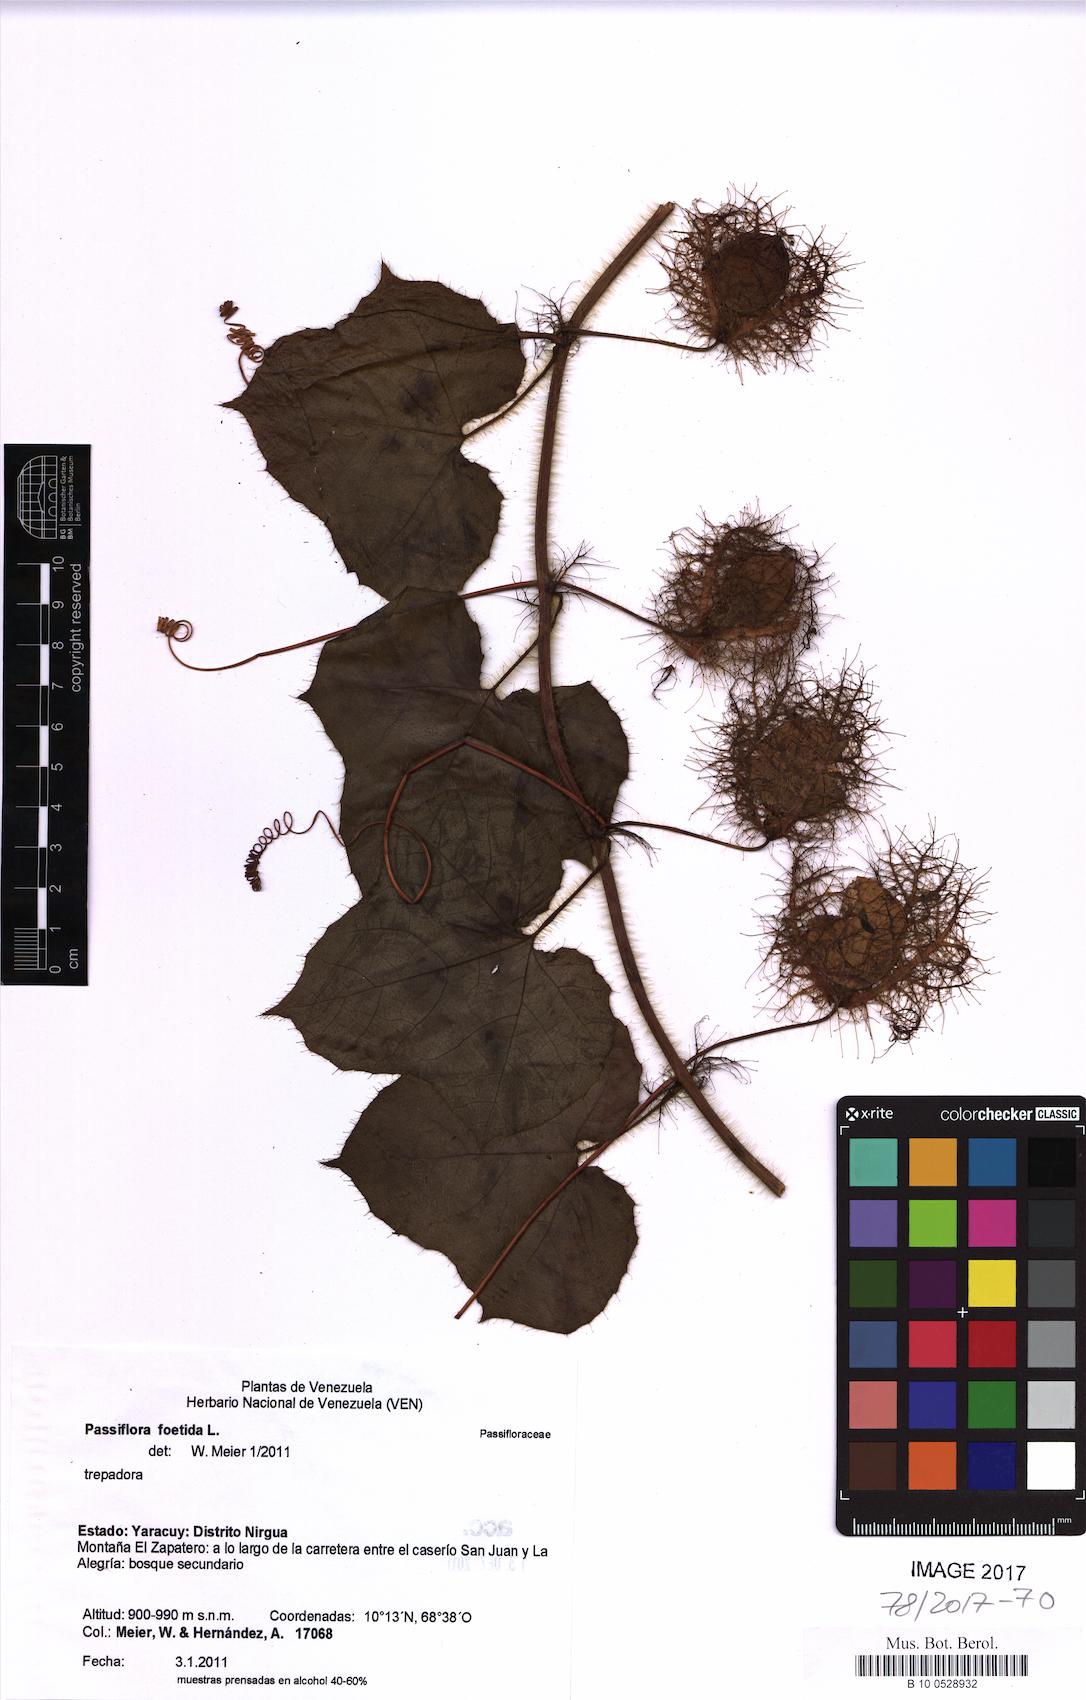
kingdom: Plantae
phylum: Tracheophyta
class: Magnoliopsida
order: Malpighiales
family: Passifloraceae
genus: Passiflora
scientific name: Passiflora foetida
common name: Fetid passionflower
